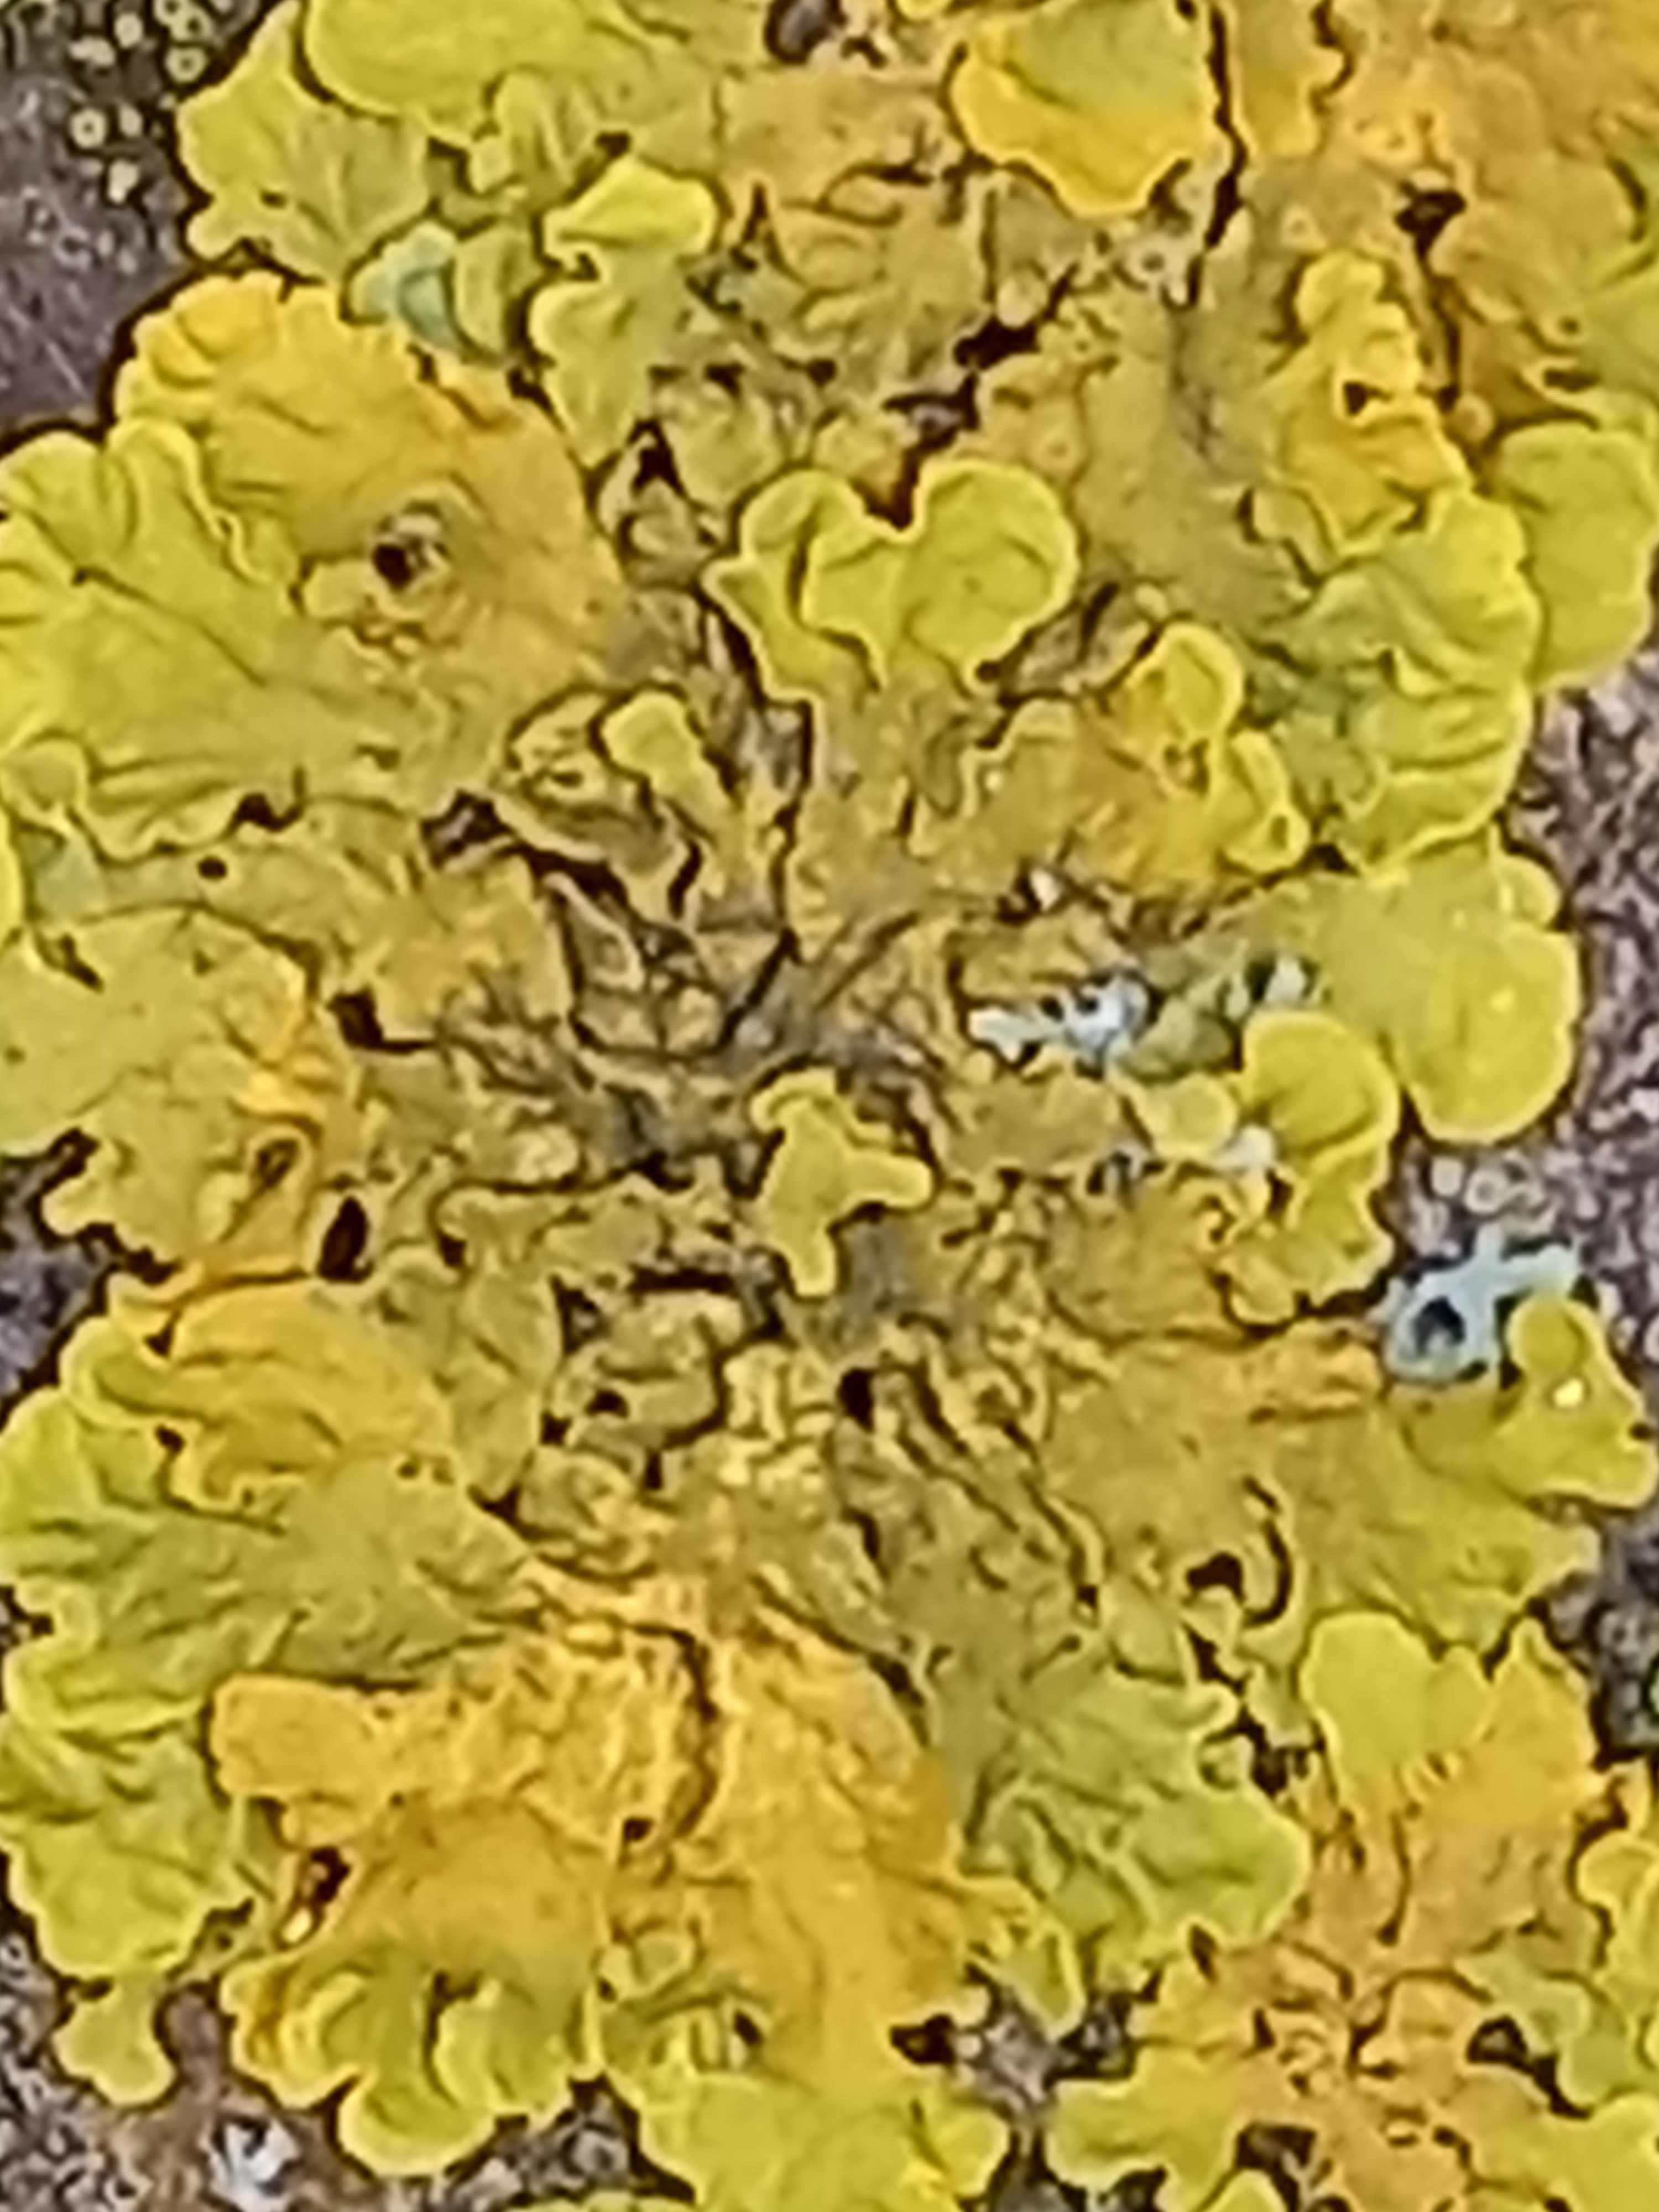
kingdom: Fungi
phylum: Ascomycota
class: Lecanoromycetes
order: Teloschistales
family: Teloschistaceae
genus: Xanthoria
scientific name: Xanthoria parietina
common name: almindelig væggelav
